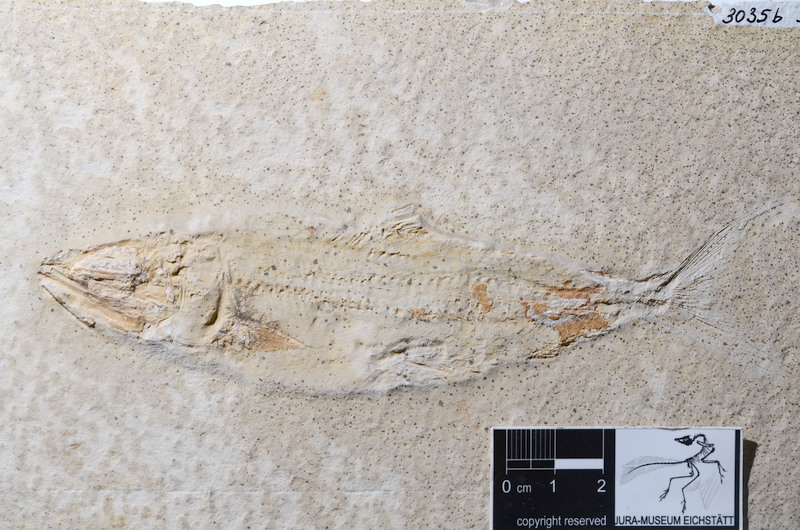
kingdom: Animalia
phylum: Chordata
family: Ankylophoridae
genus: Siemensichthys
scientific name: Siemensichthys macrocephalus
